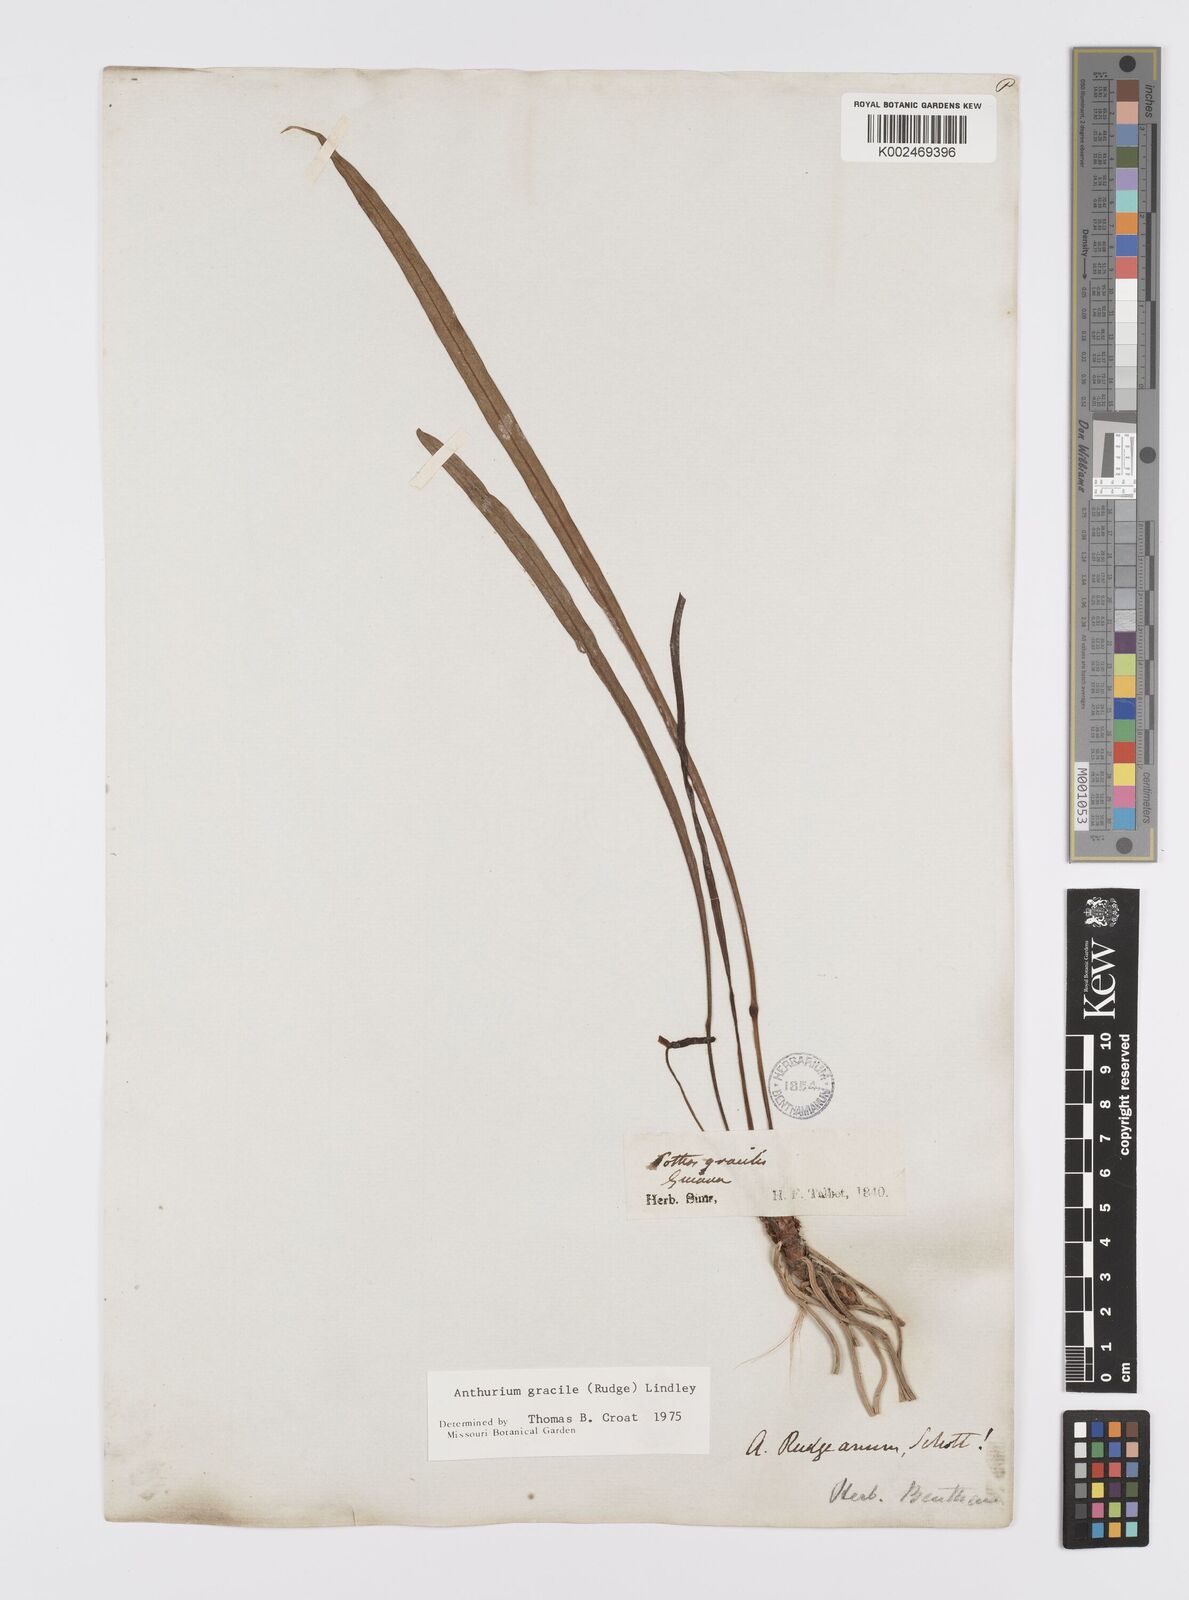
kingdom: Plantae
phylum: Tracheophyta
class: Liliopsida
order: Alismatales
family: Araceae
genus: Anthurium
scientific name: Anthurium gracile
